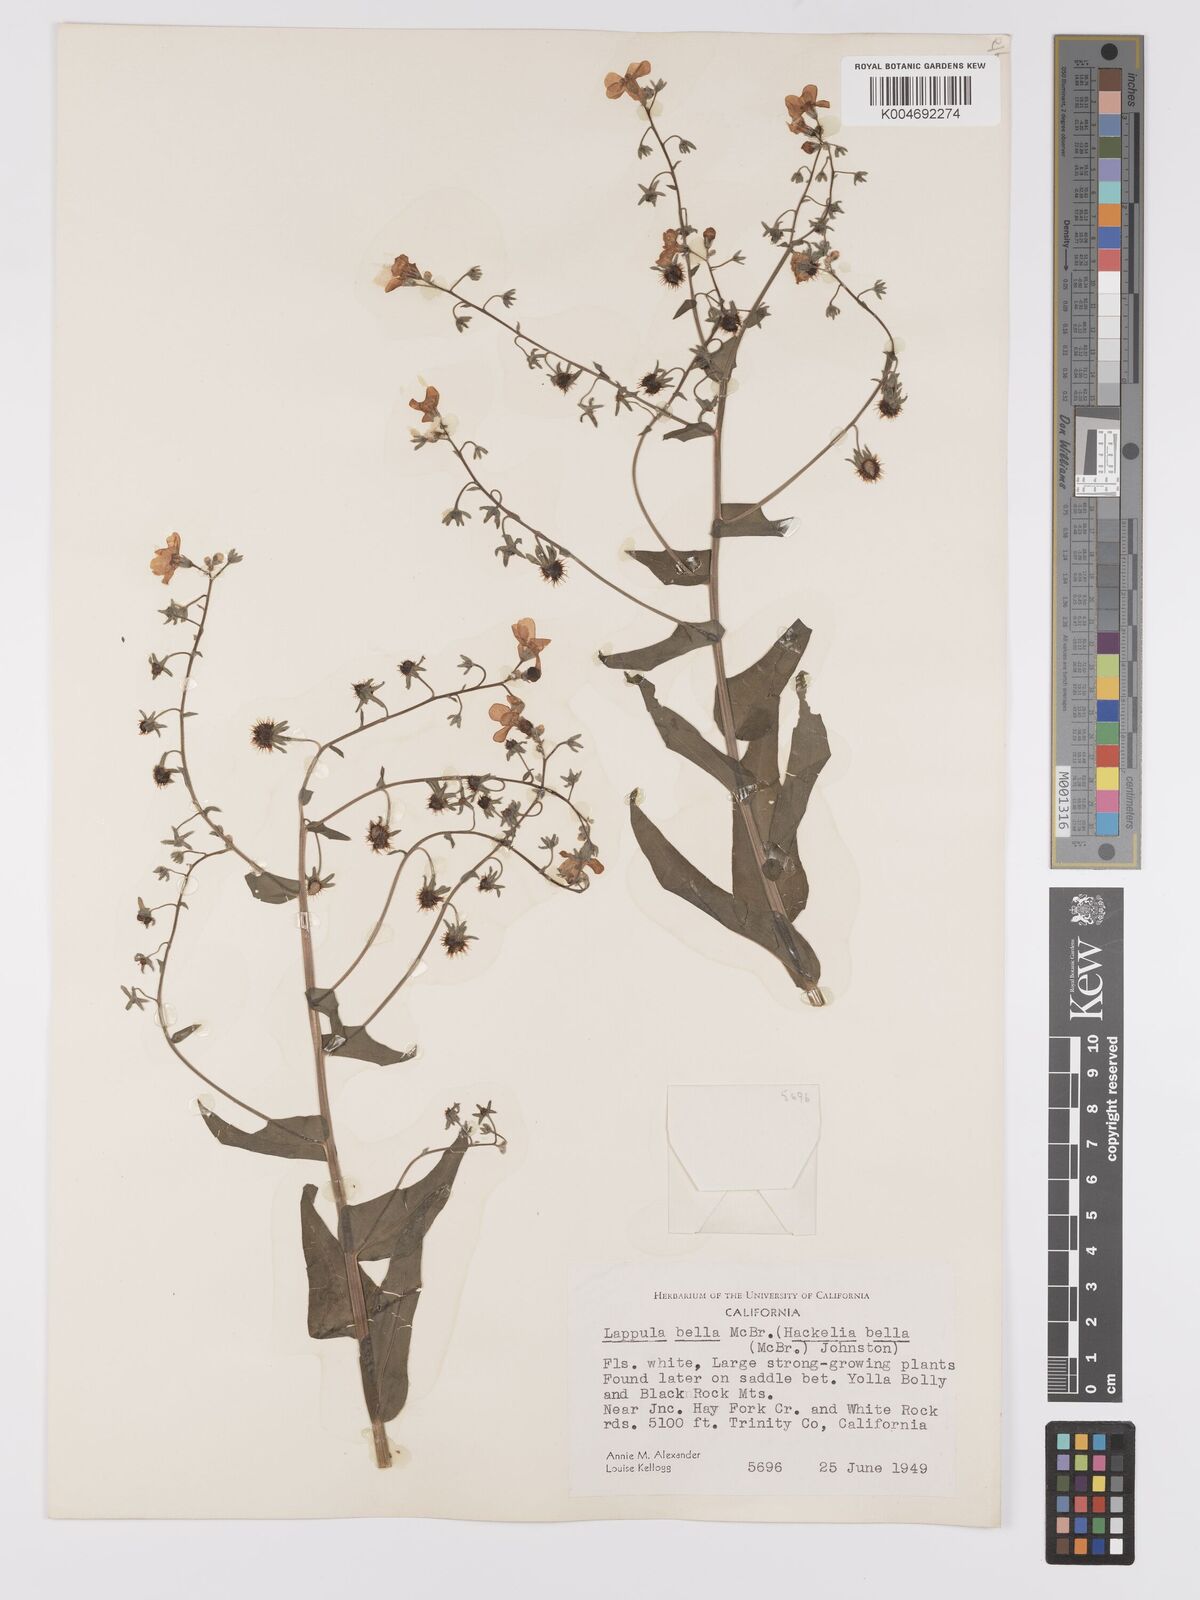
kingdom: Plantae
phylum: Tracheophyta
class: Magnoliopsida
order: Boraginales
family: Boraginaceae
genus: Hackelia
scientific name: Hackelia bella
